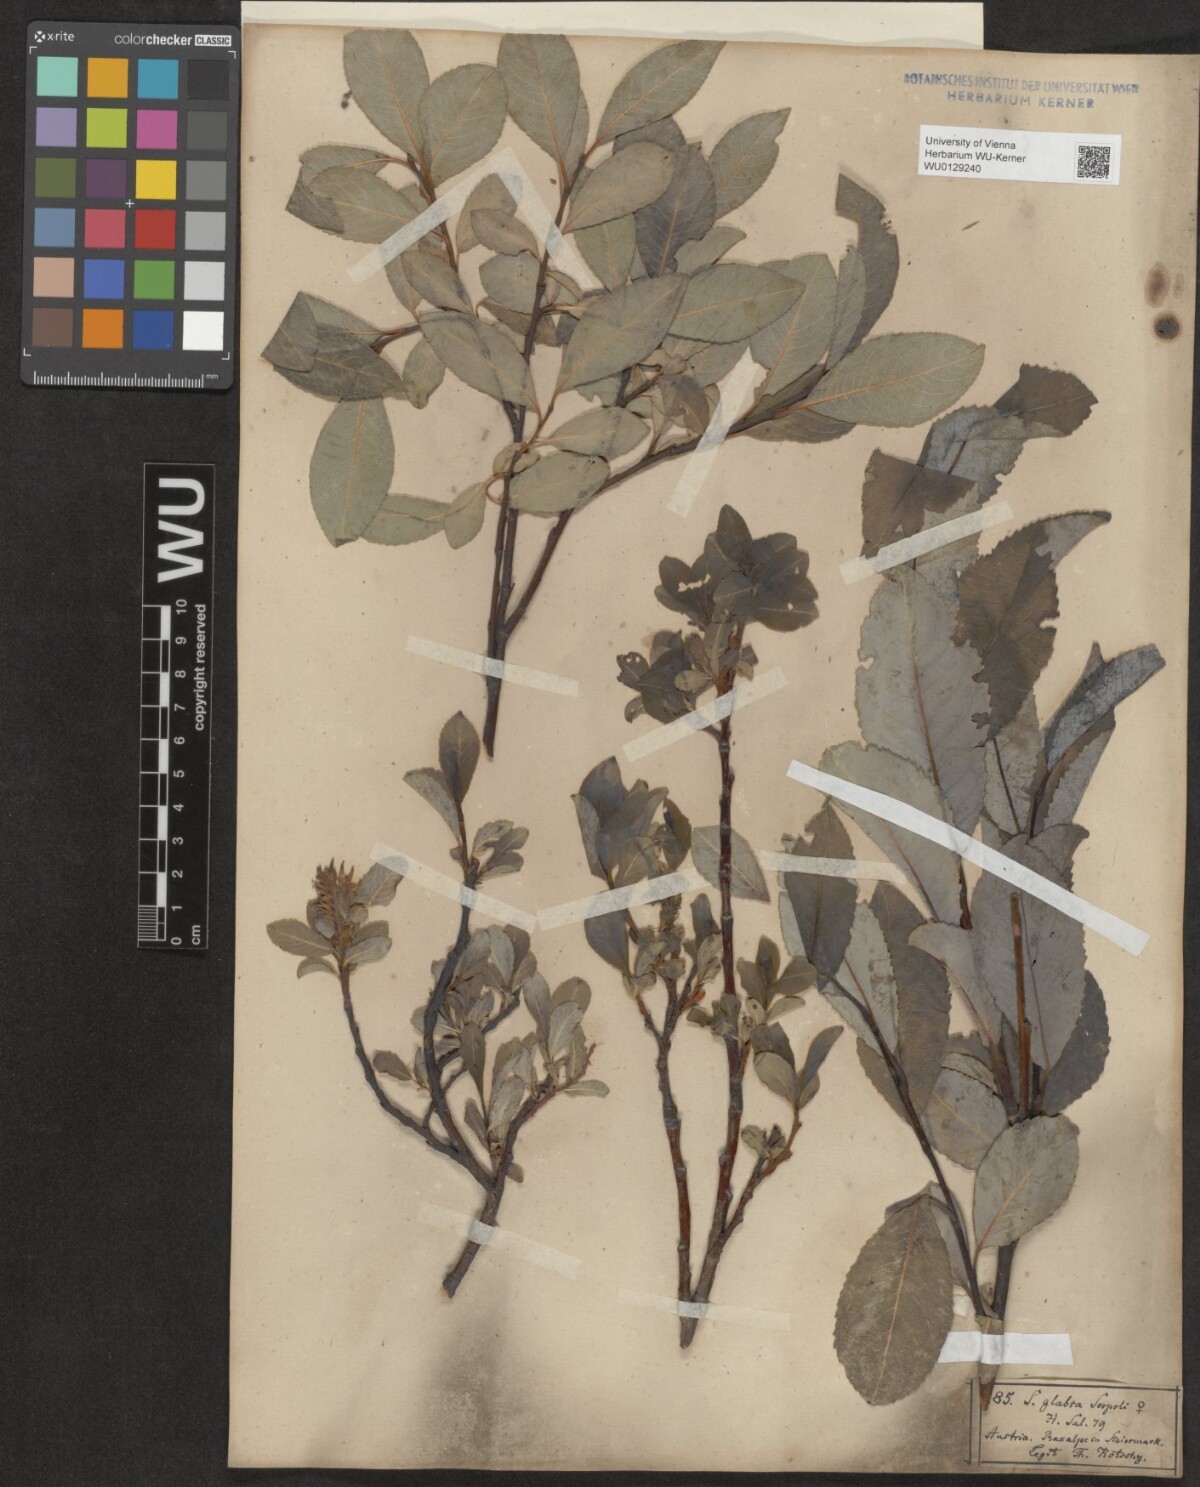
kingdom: Plantae
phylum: Tracheophyta
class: Magnoliopsida
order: Malpighiales
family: Salicaceae
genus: Salix
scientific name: Salix glabra
